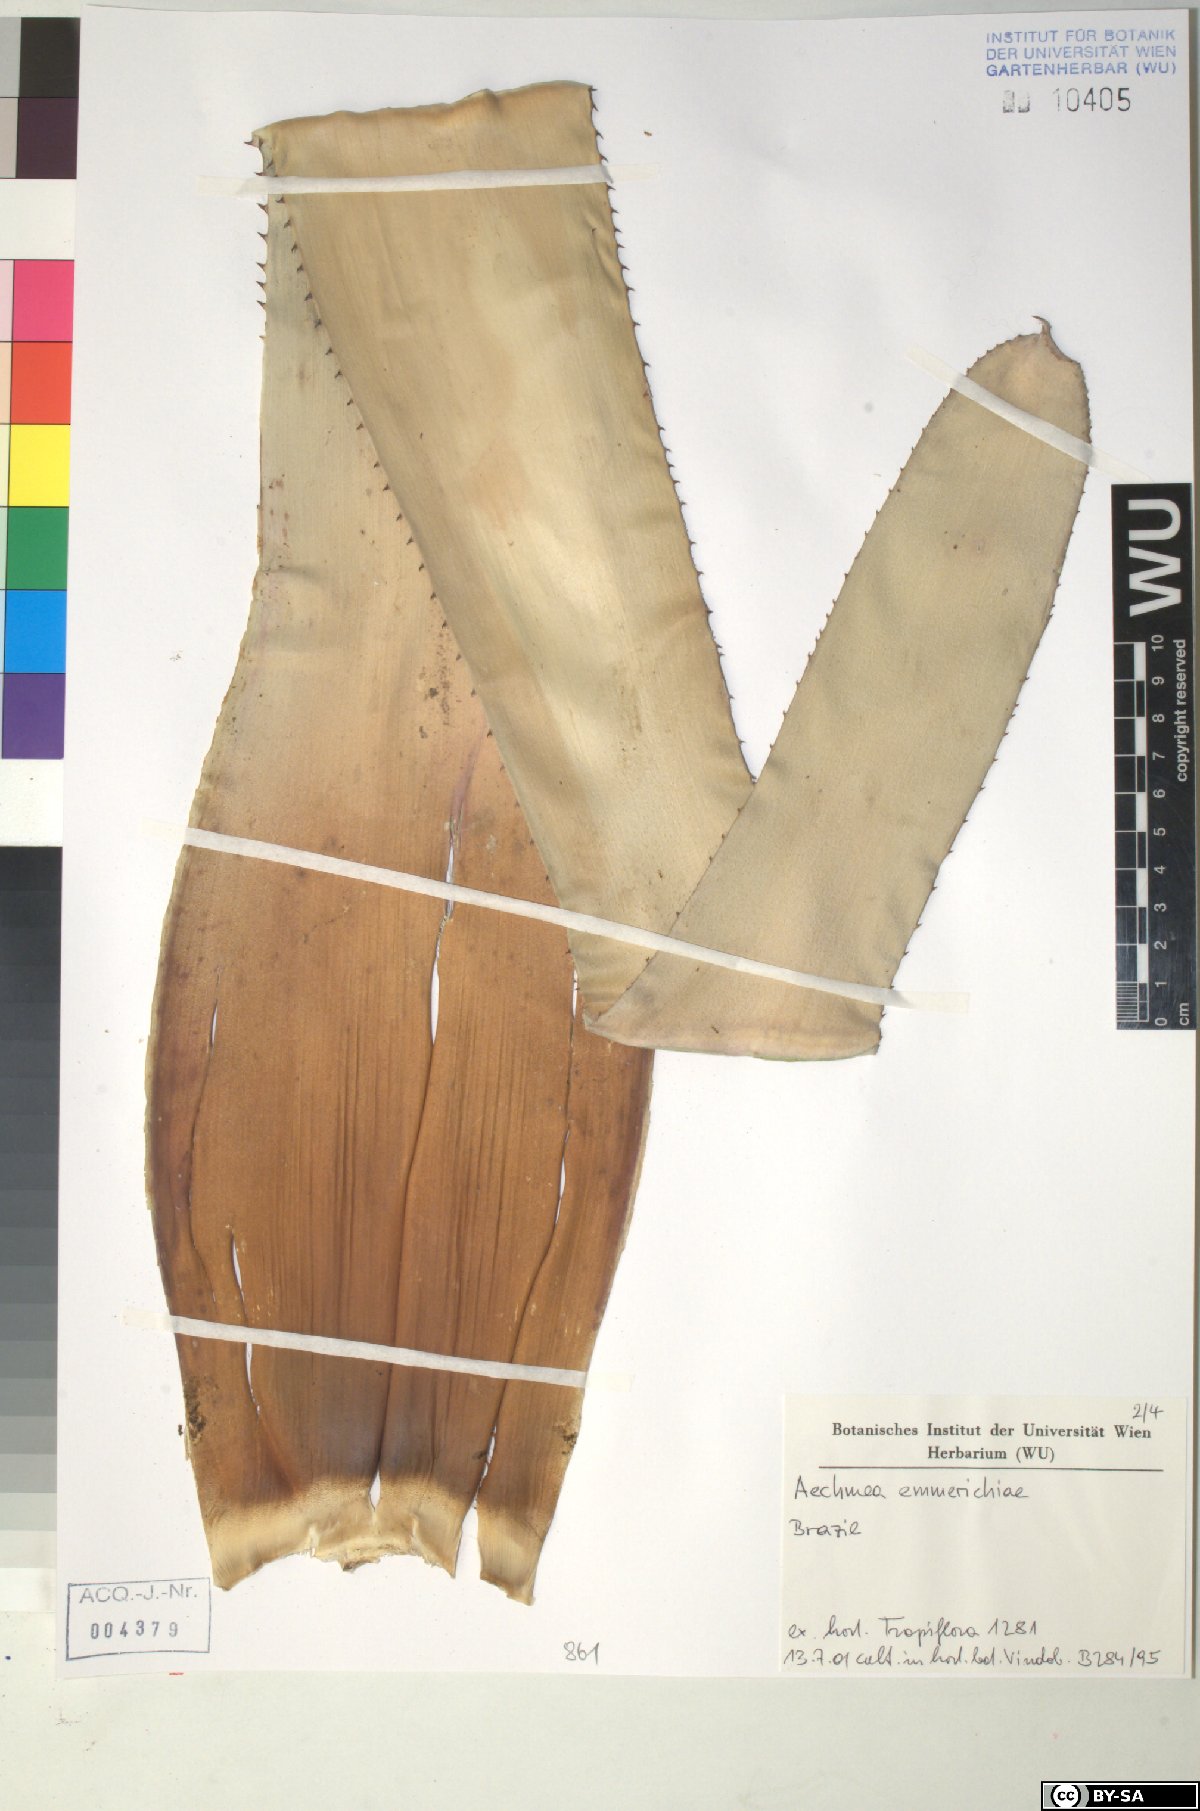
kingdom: Plantae
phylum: Tracheophyta
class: Liliopsida
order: Poales
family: Bromeliaceae
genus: Aechmea
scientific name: Aechmea emmerichiae
